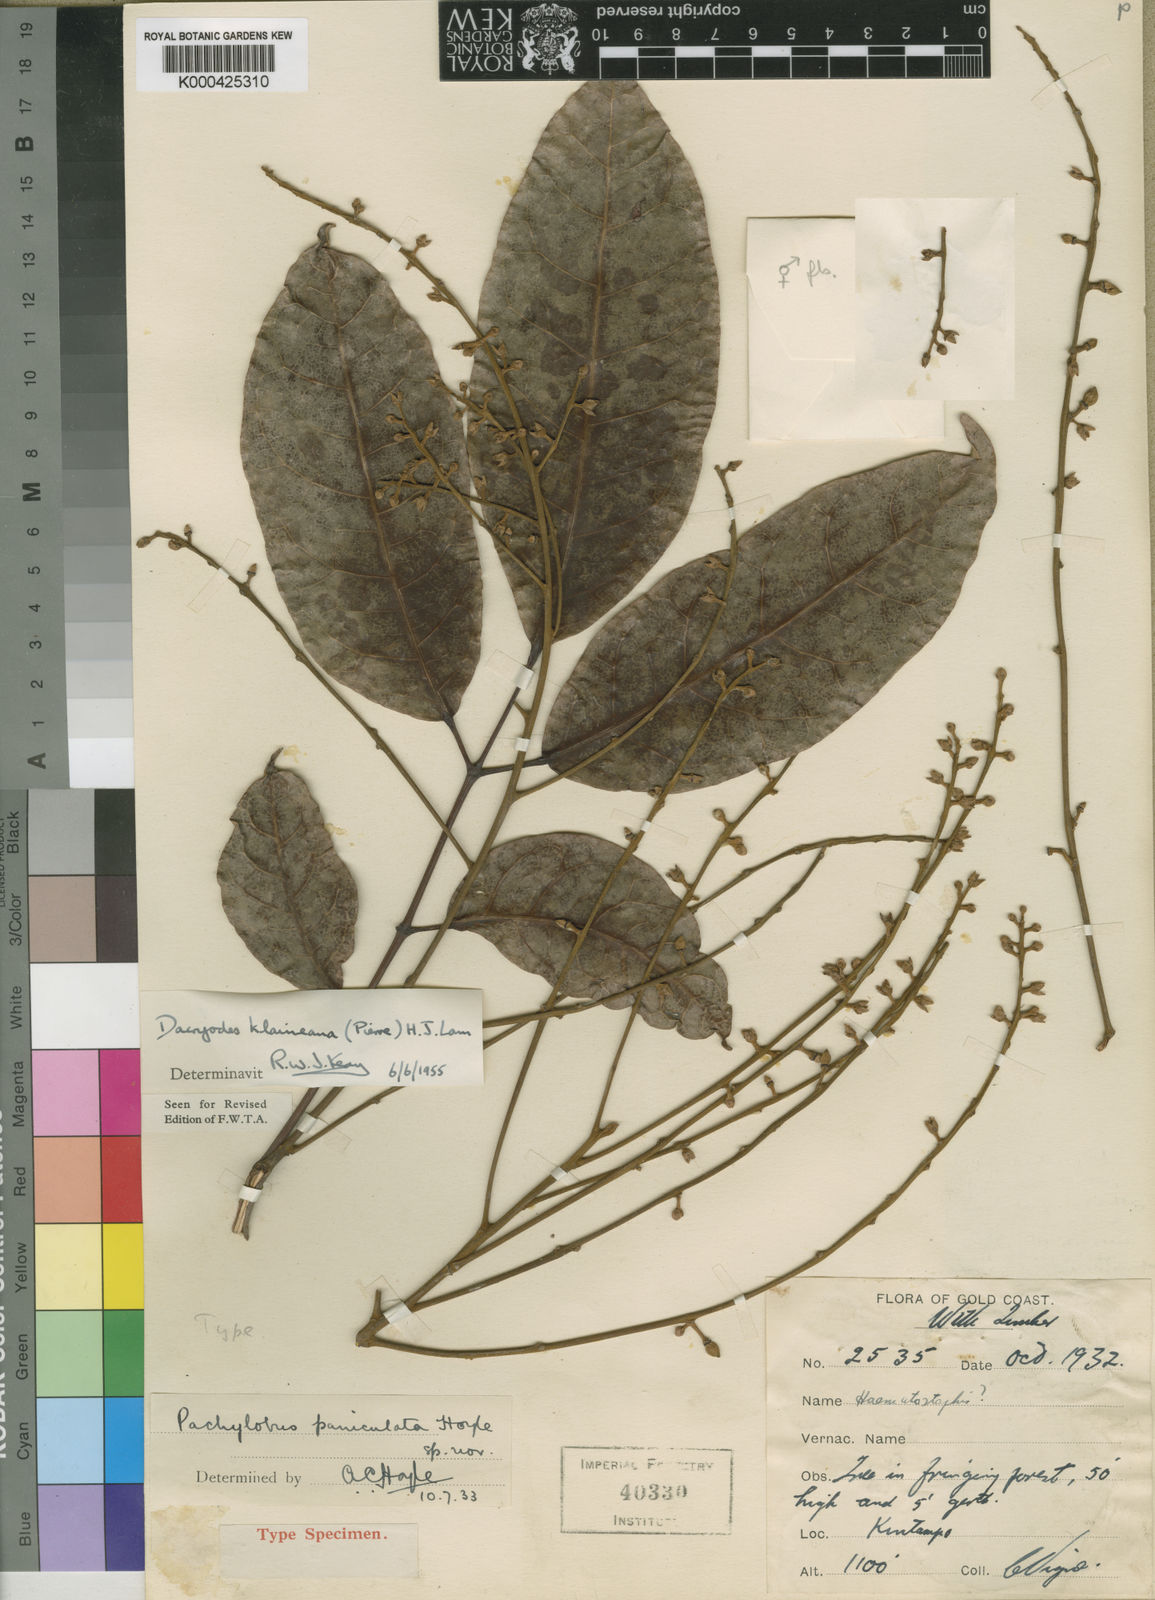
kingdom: Plantae
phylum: Tracheophyta
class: Magnoliopsida
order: Sapindales
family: Burseraceae
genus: Pachylobus
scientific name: Pachylobus klaineana
